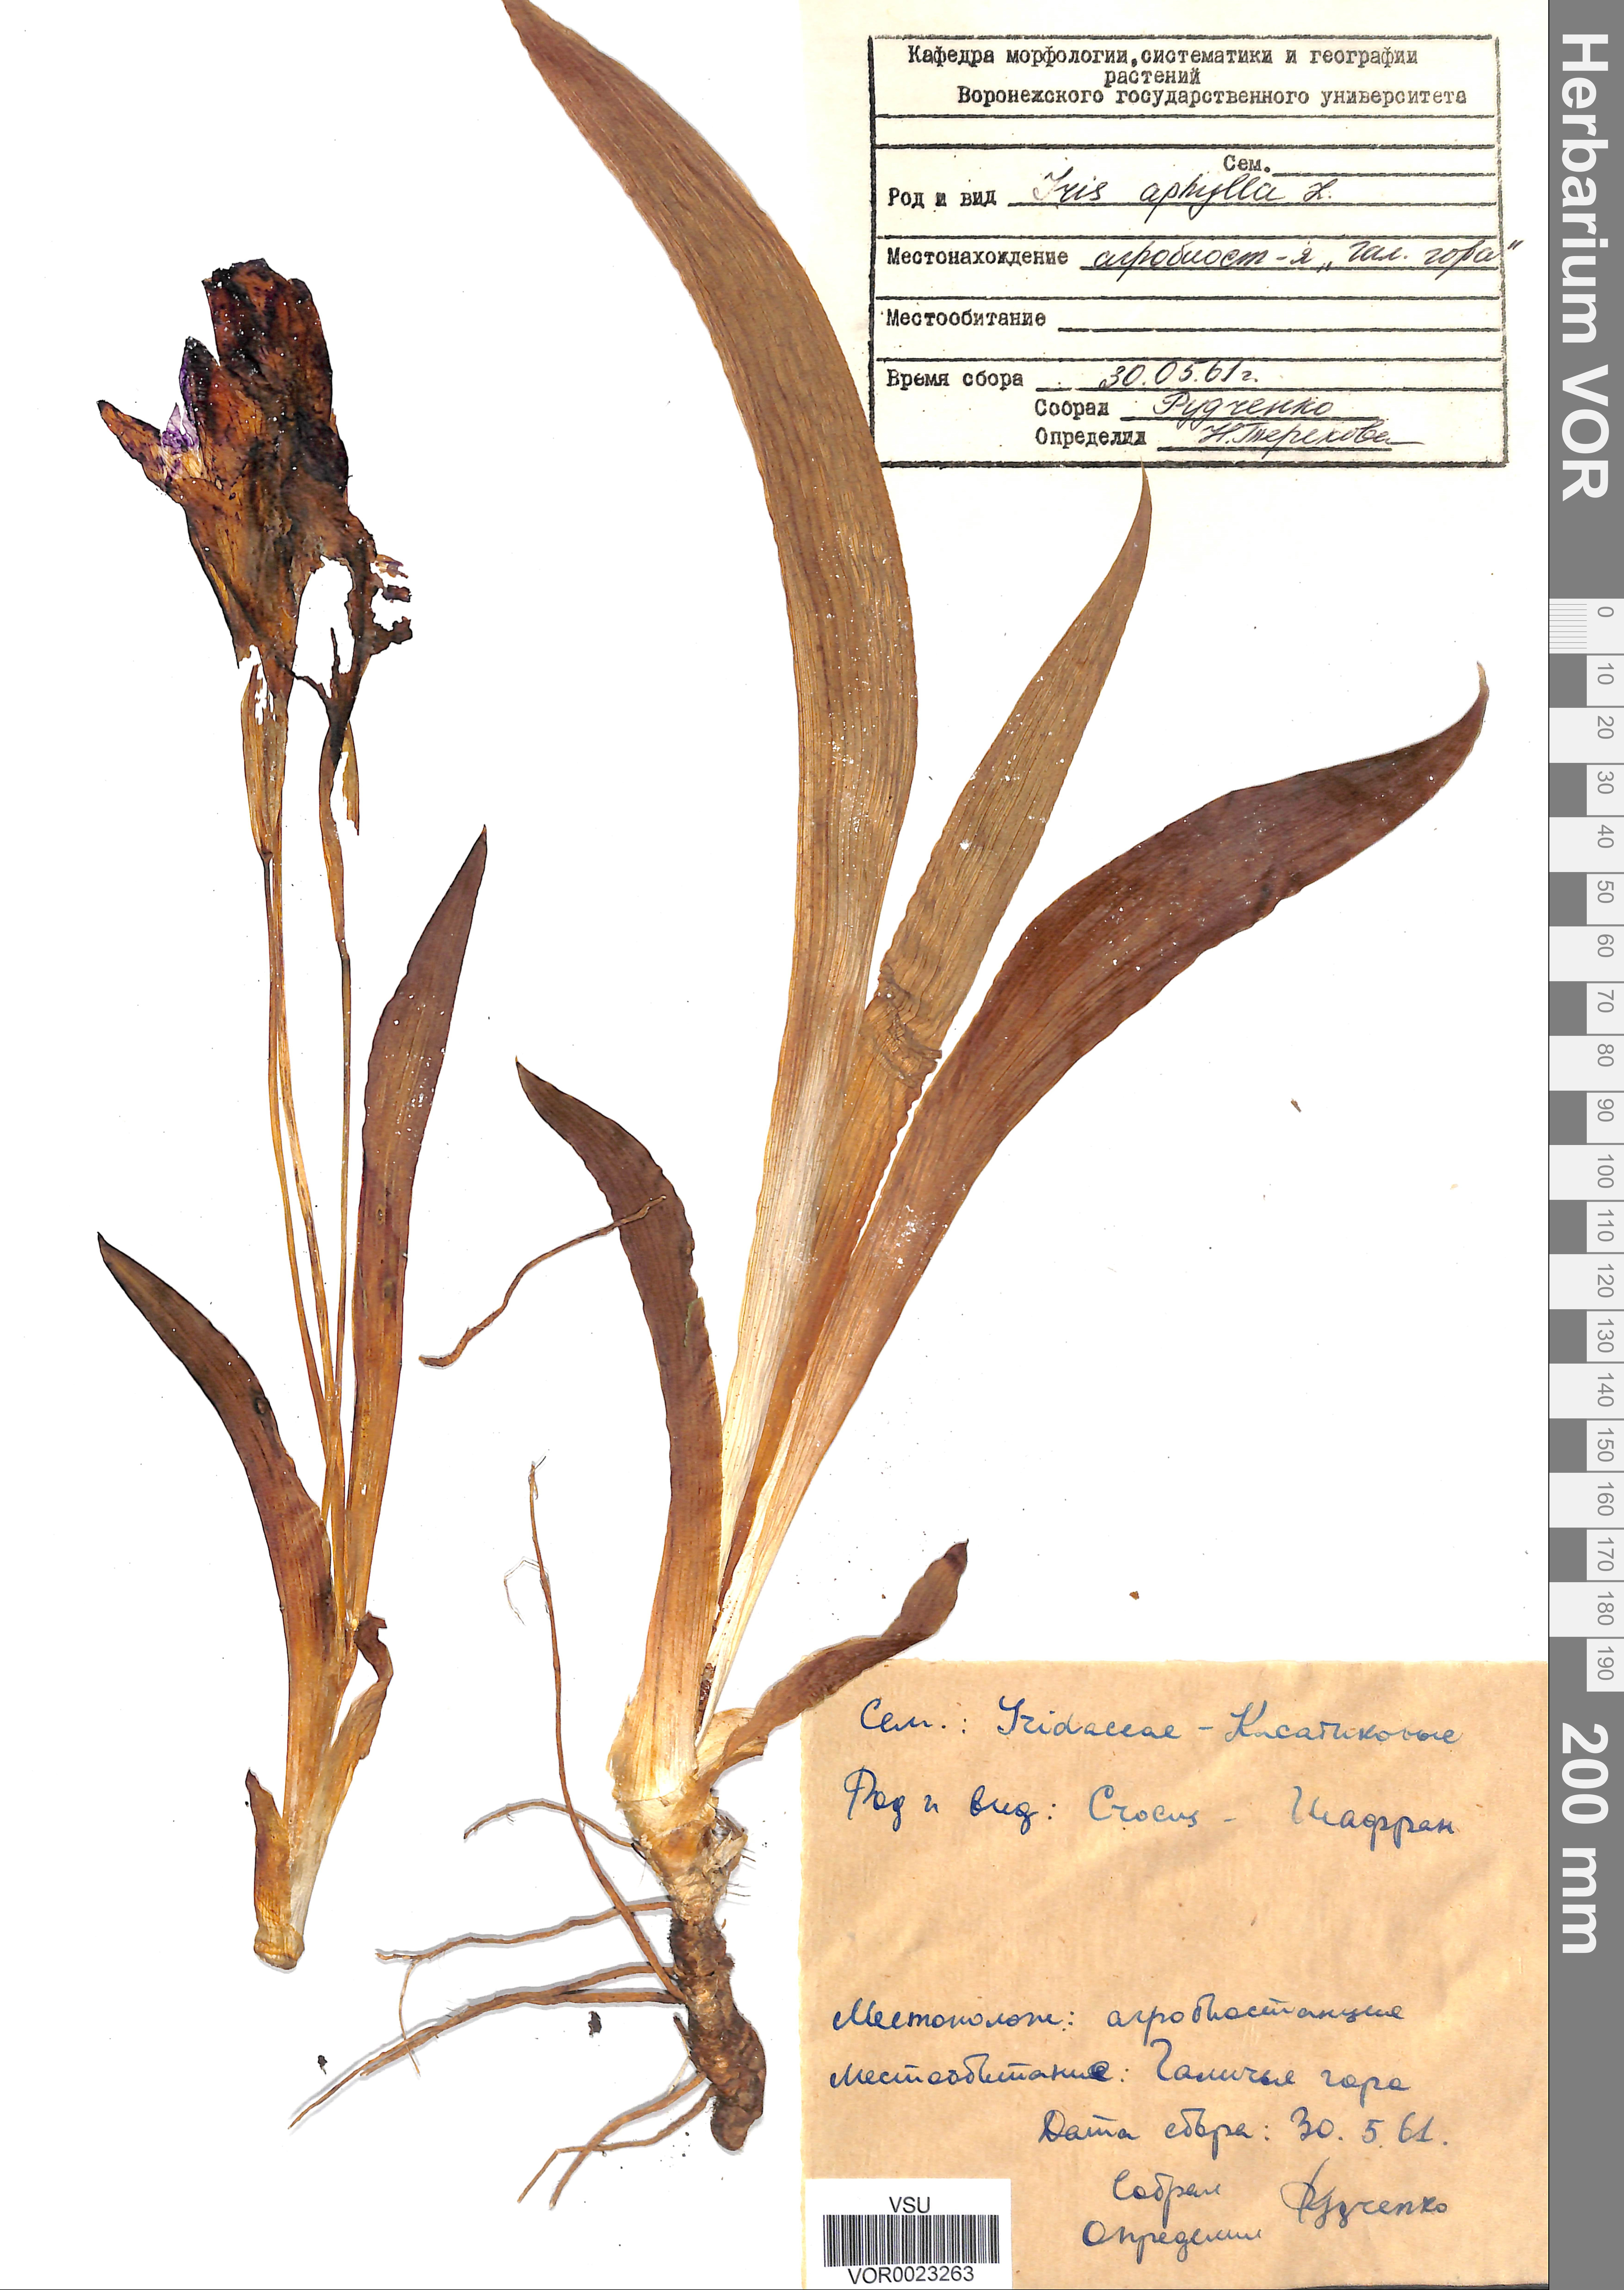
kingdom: Plantae
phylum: Tracheophyta
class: Liliopsida
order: Asparagales
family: Iridaceae
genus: Iris
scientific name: Iris aphylla
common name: Stool iris
